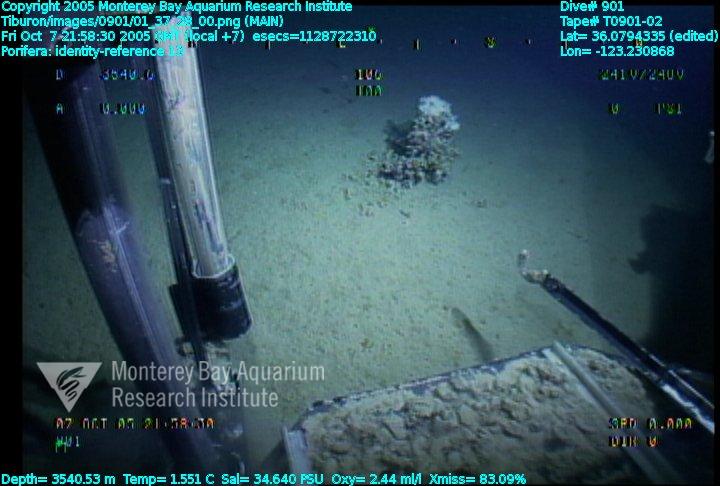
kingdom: Animalia
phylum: Porifera
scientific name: Porifera
